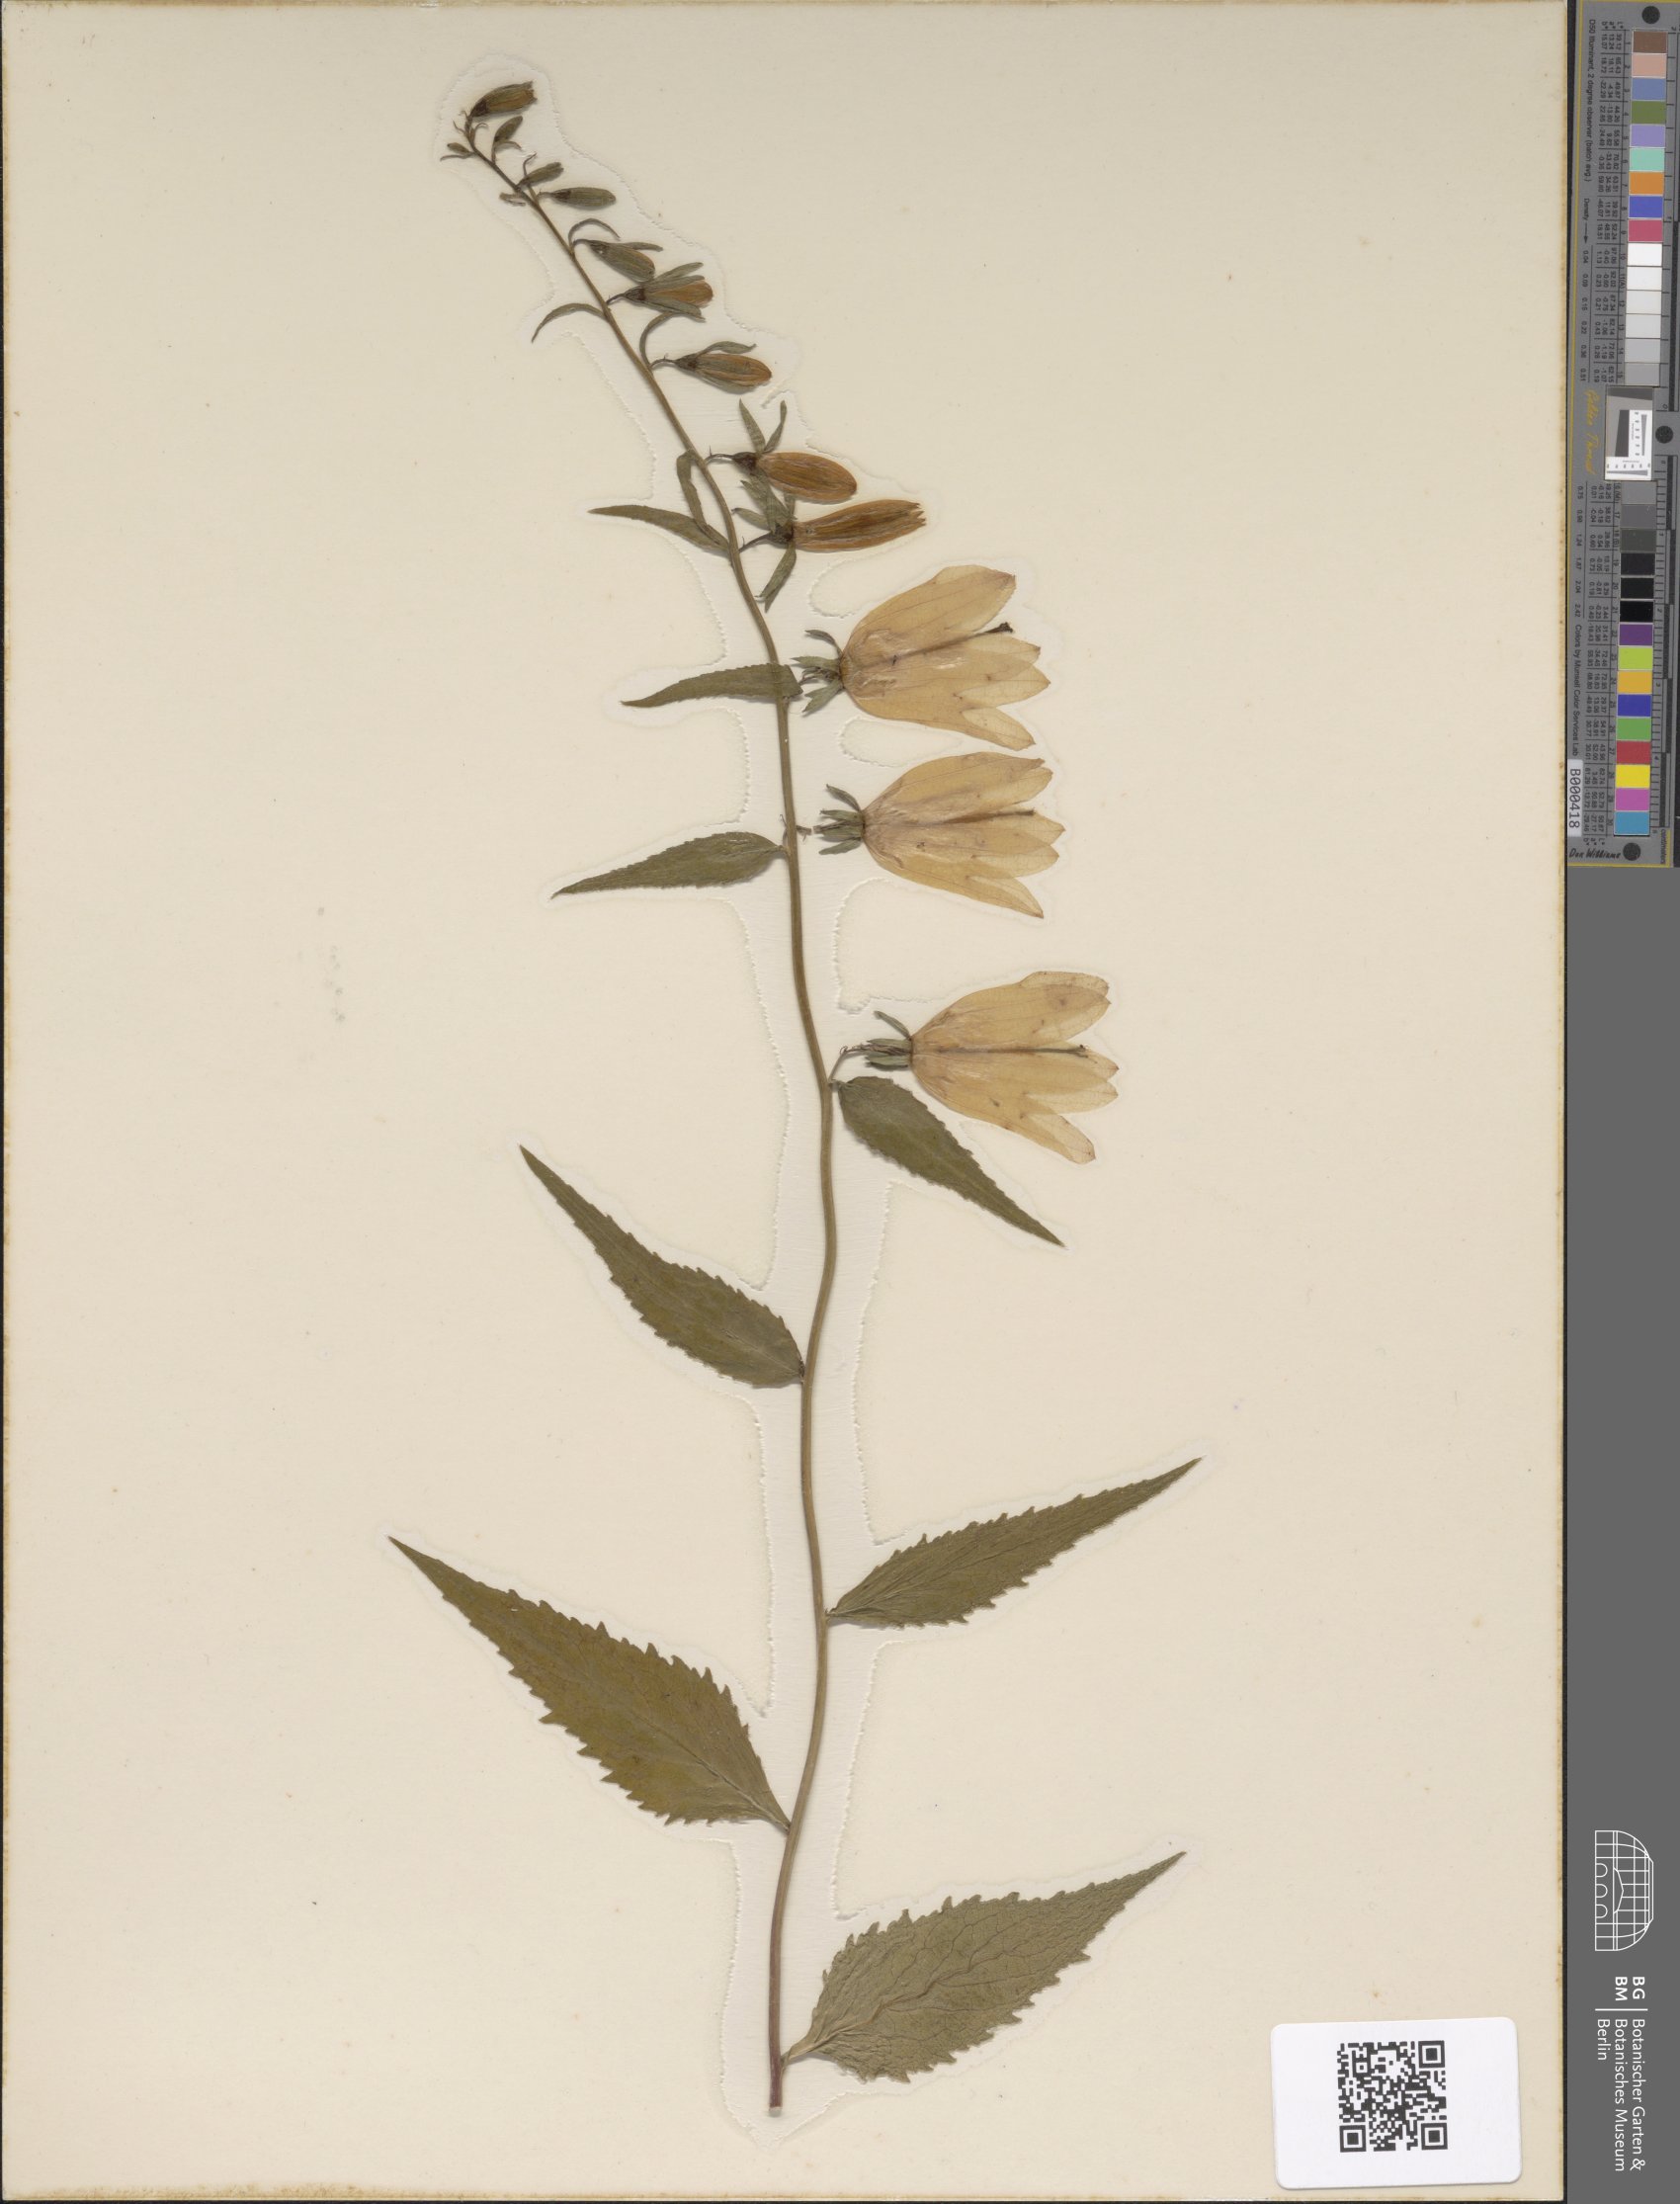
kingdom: Plantae
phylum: Tracheophyta
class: Magnoliopsida
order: Asterales
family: Campanulaceae
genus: Campanula
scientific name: Campanula rapunculoides
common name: Creeping bellflower
